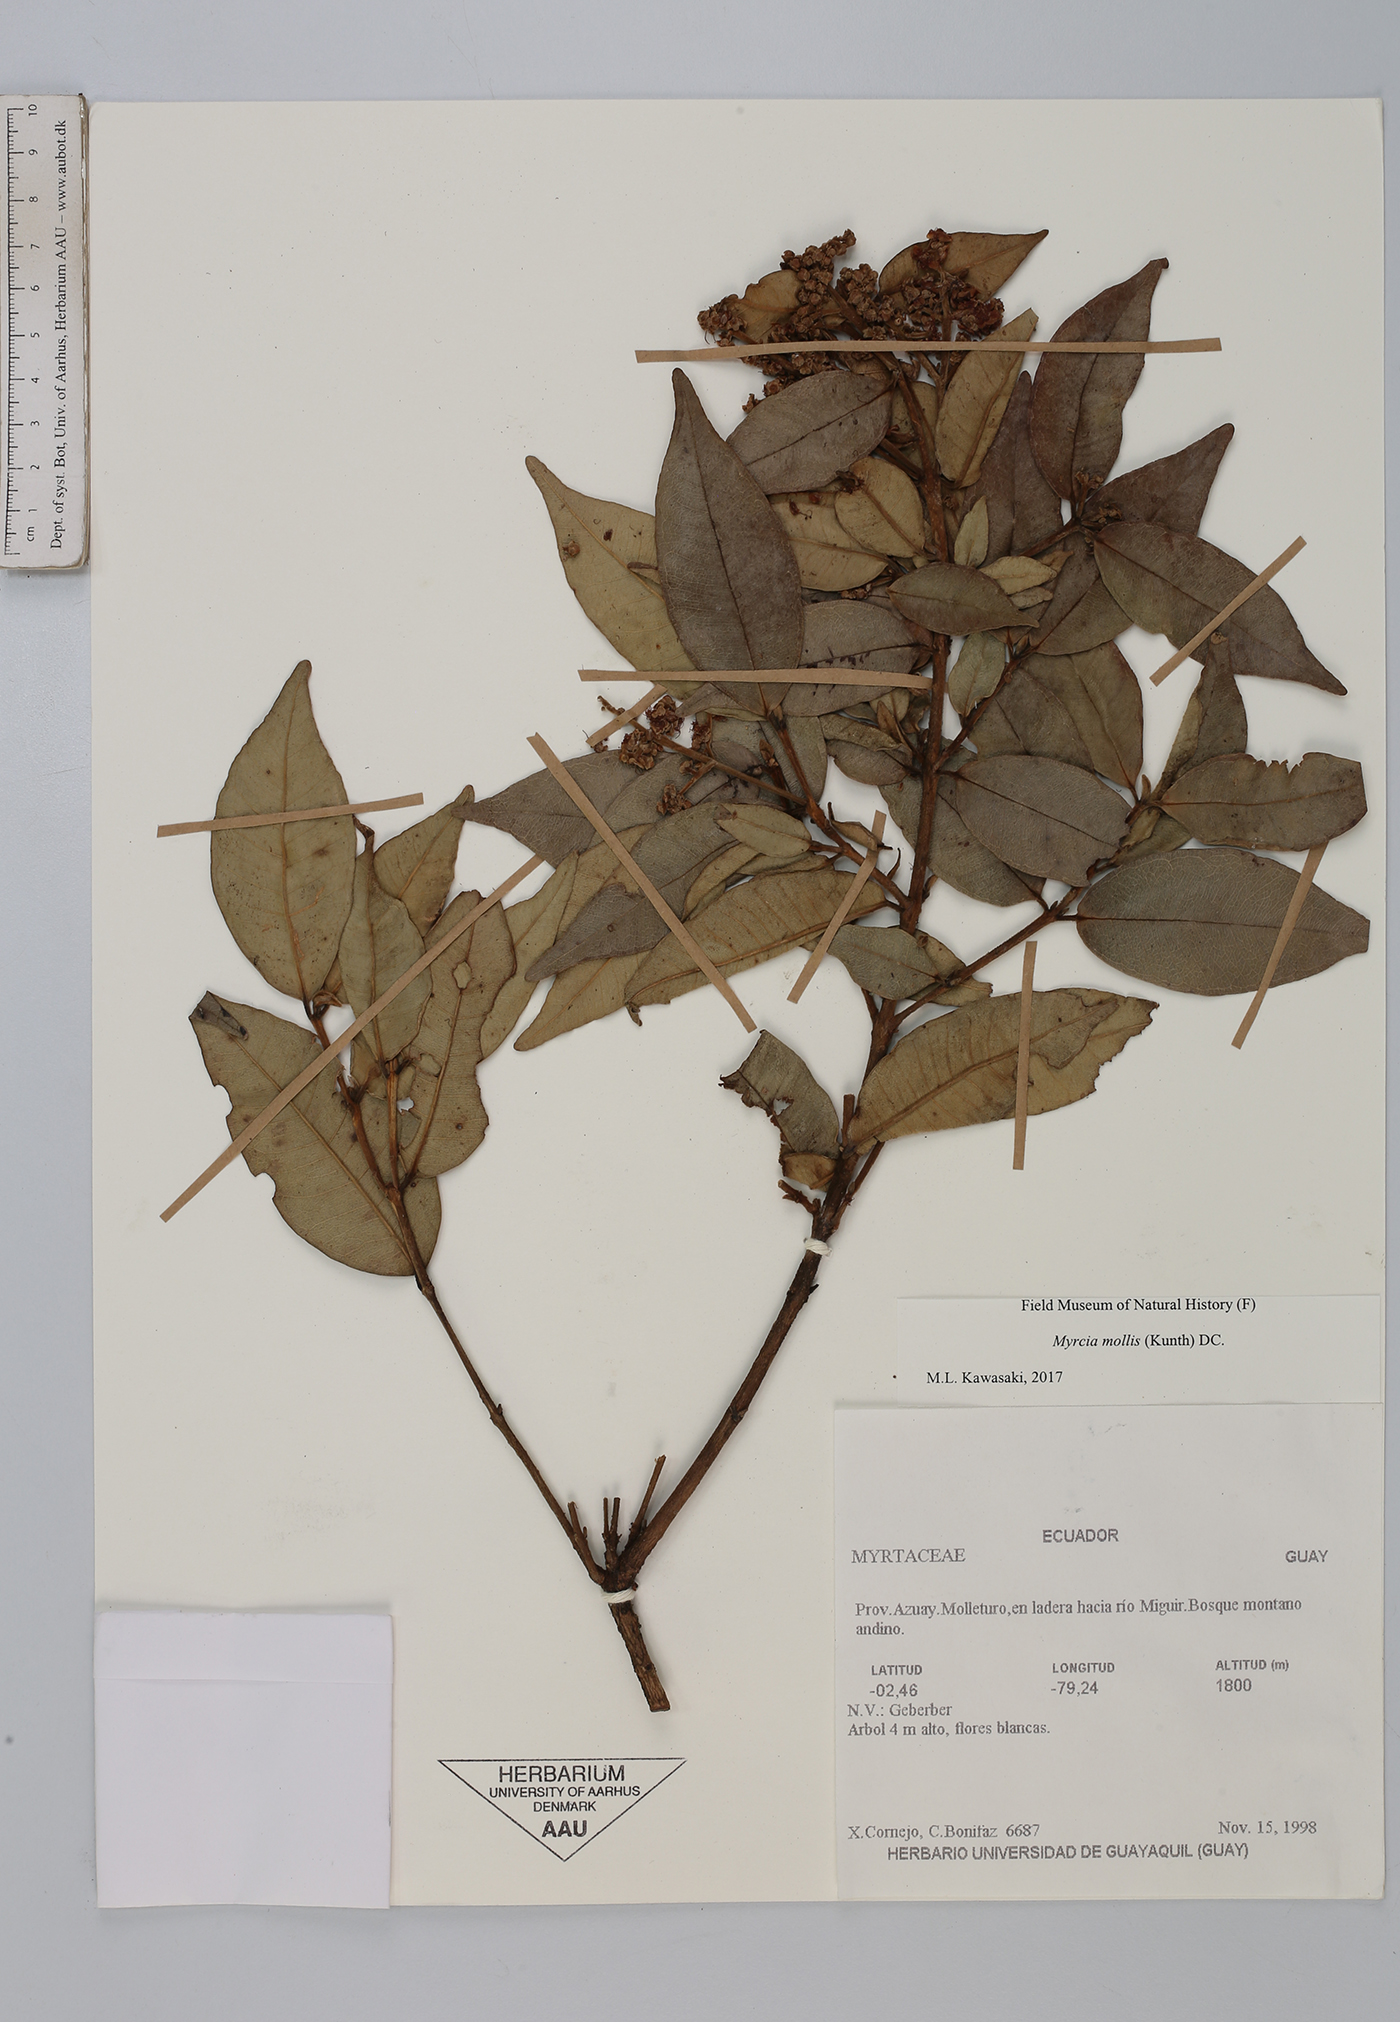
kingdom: Plantae
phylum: Tracheophyta
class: Magnoliopsida
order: Myrtales
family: Myrtaceae
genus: Myrcia
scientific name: Myrcia mollis
